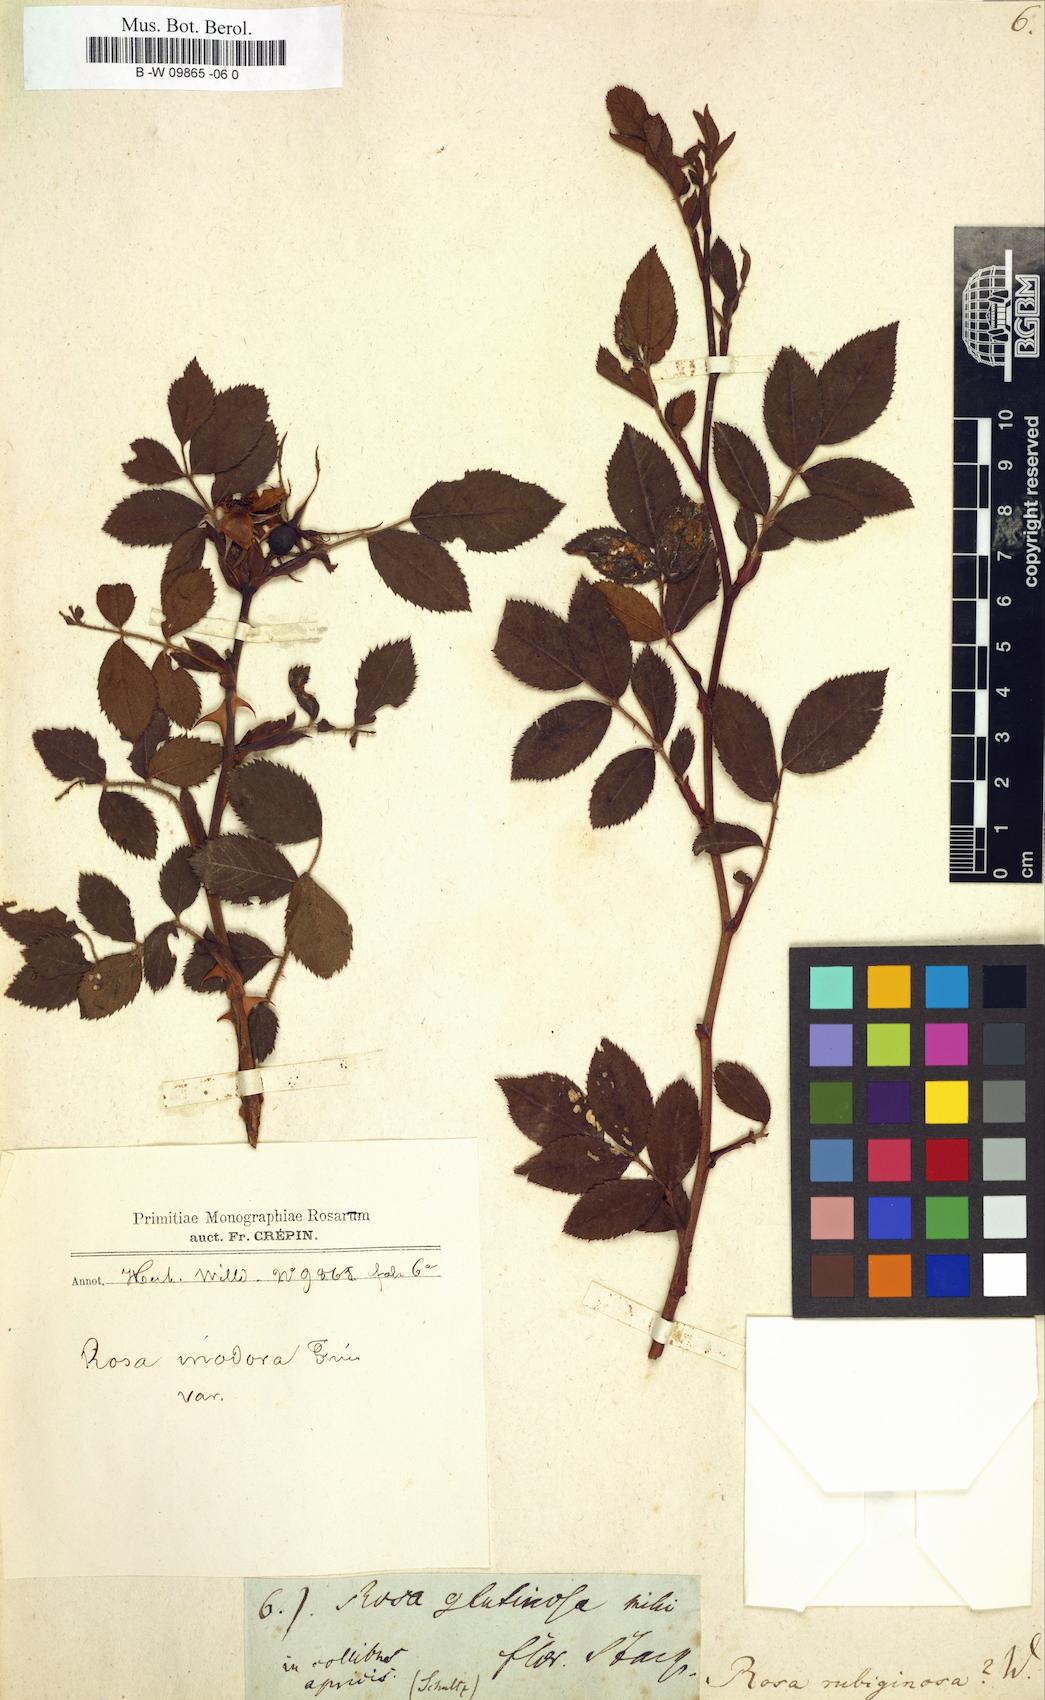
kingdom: Plantae
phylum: Tracheophyta
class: Magnoliopsida
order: Rosales
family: Rosaceae
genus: Rosa
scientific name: Rosa rubiginosa
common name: Sweet-briar
